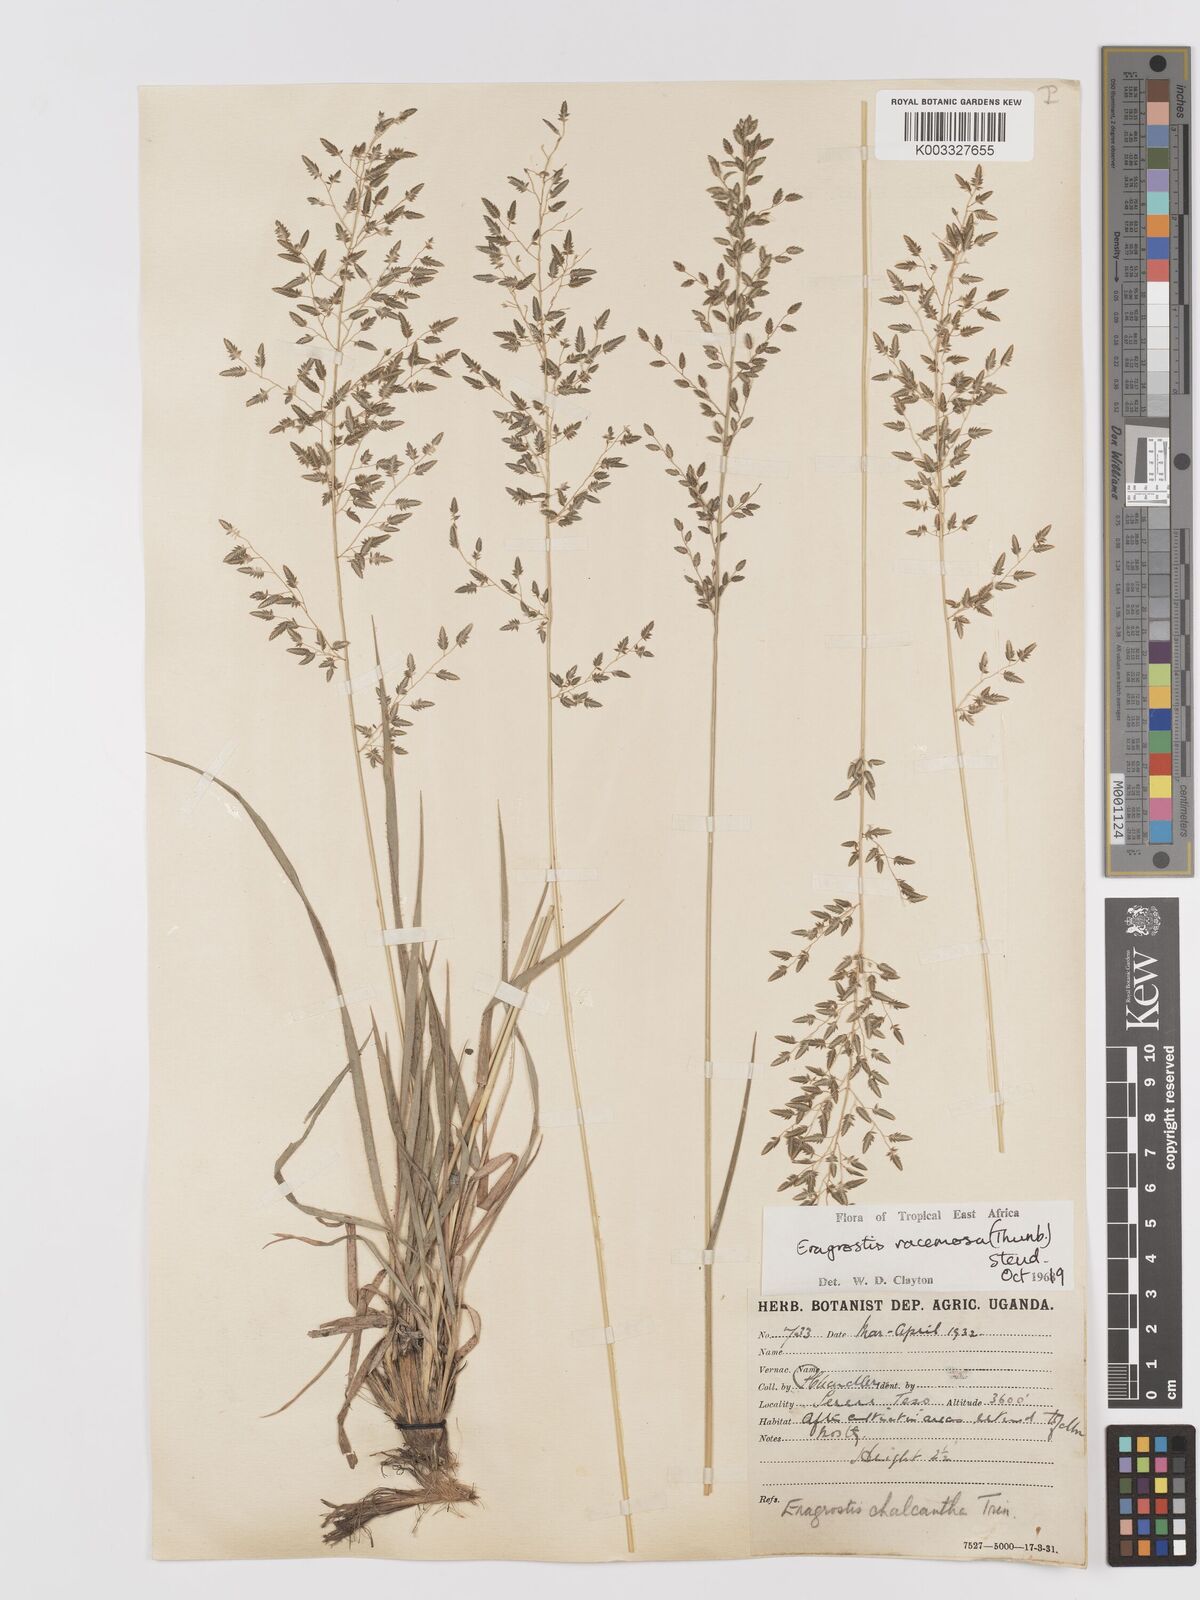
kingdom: Plantae
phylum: Tracheophyta
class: Liliopsida
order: Poales
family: Poaceae
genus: Eragrostis
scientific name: Eragrostis racemosa
